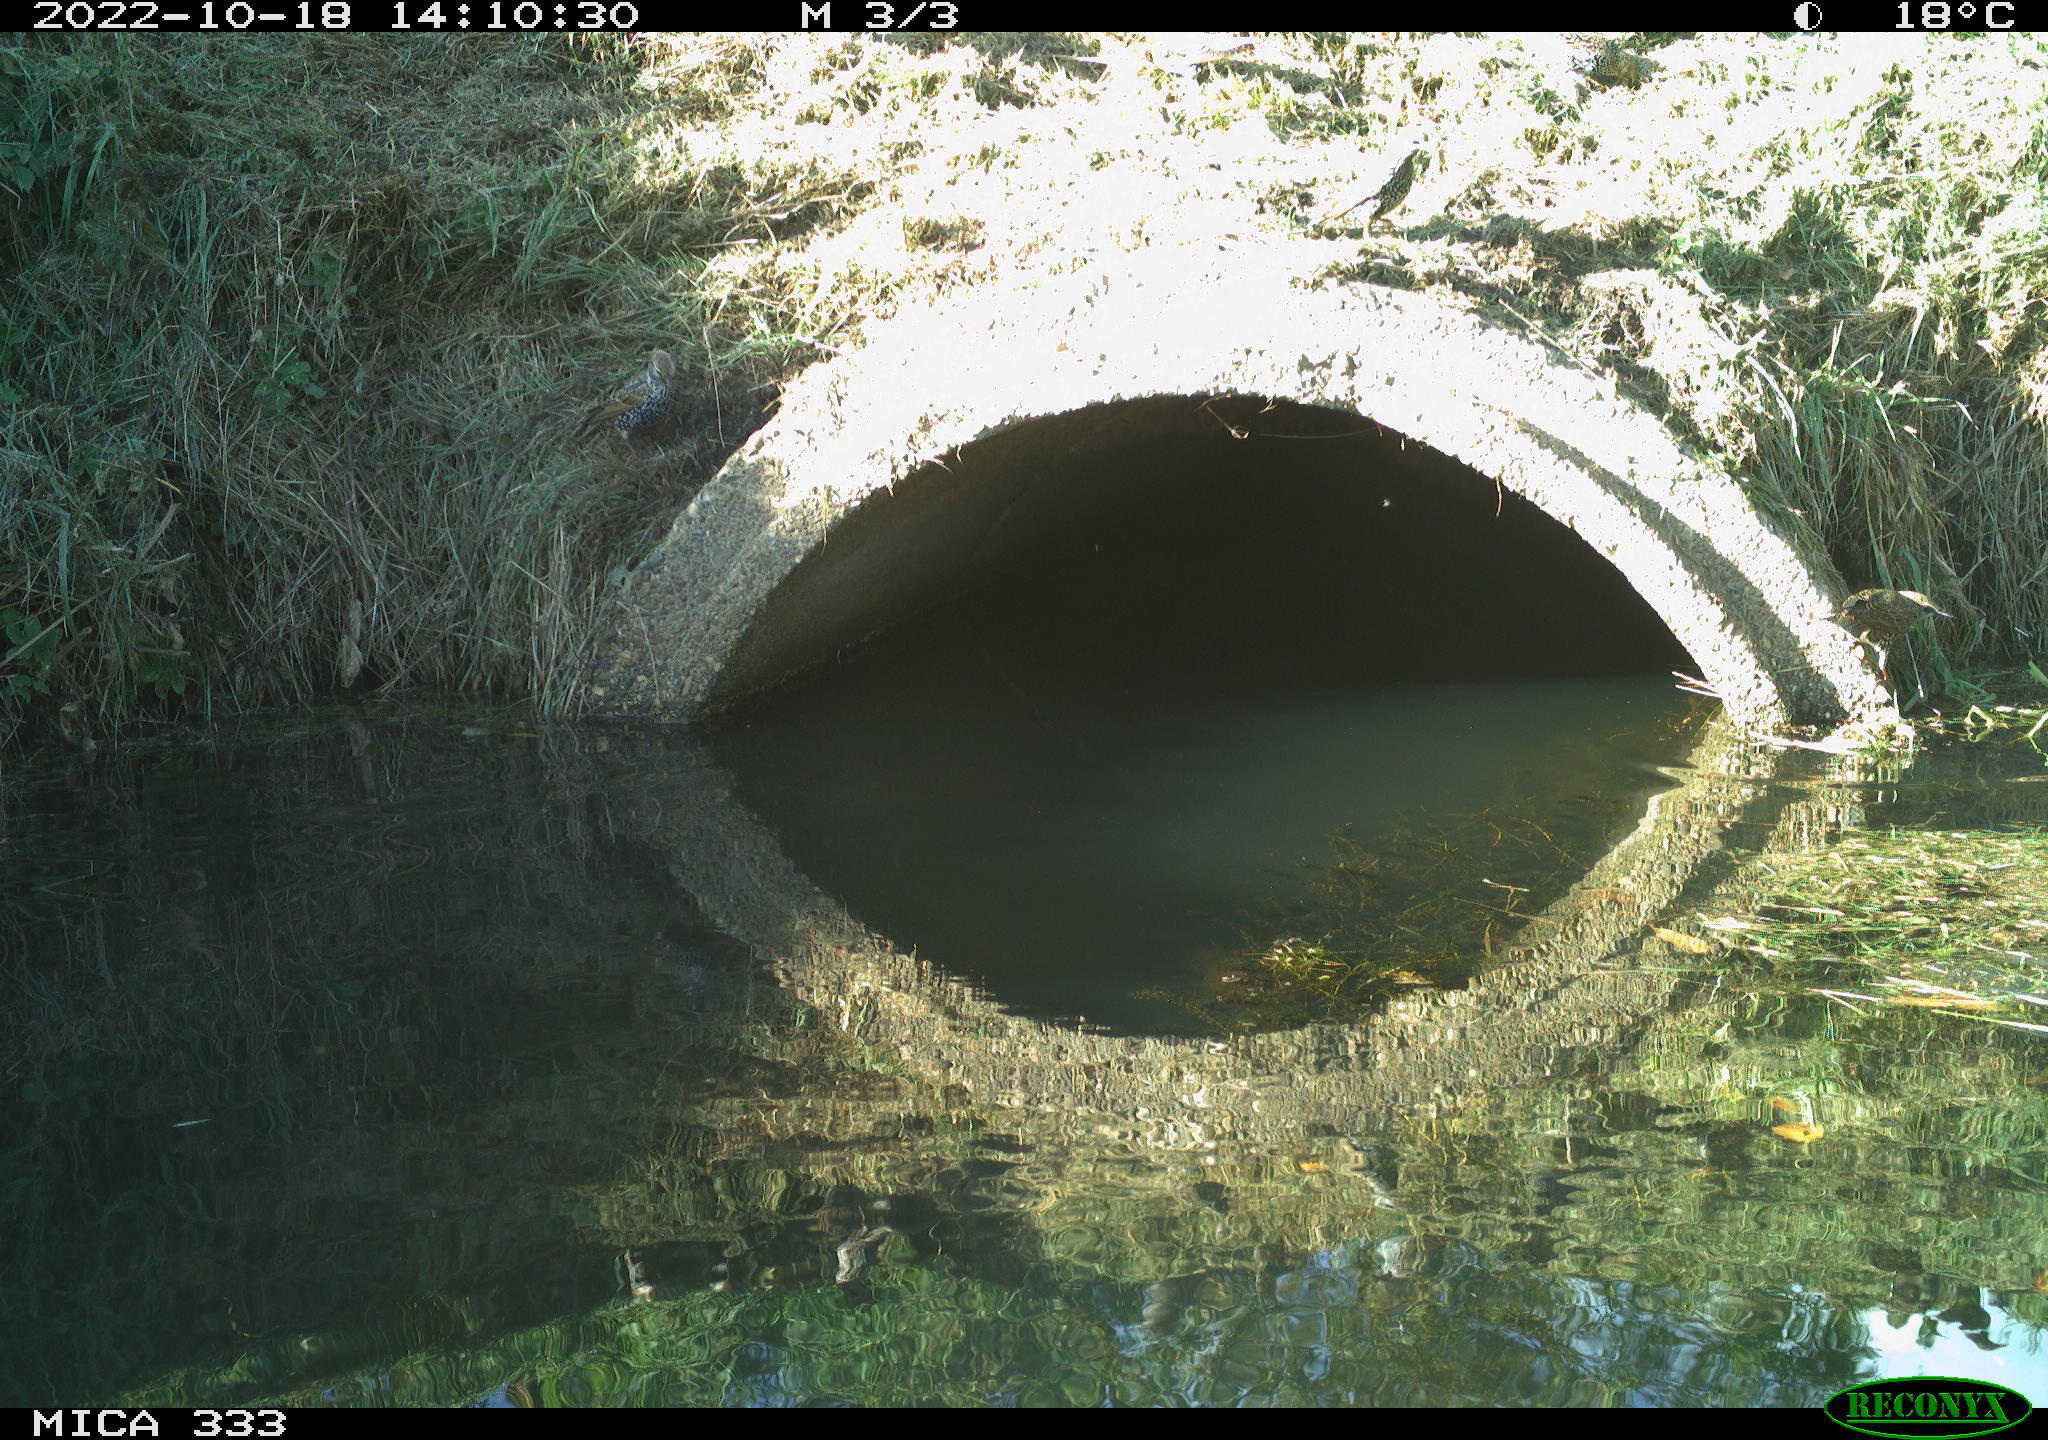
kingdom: Animalia
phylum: Chordata
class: Aves
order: Passeriformes
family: Sturnidae
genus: Sturnus
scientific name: Sturnus vulgaris
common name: Common starling
